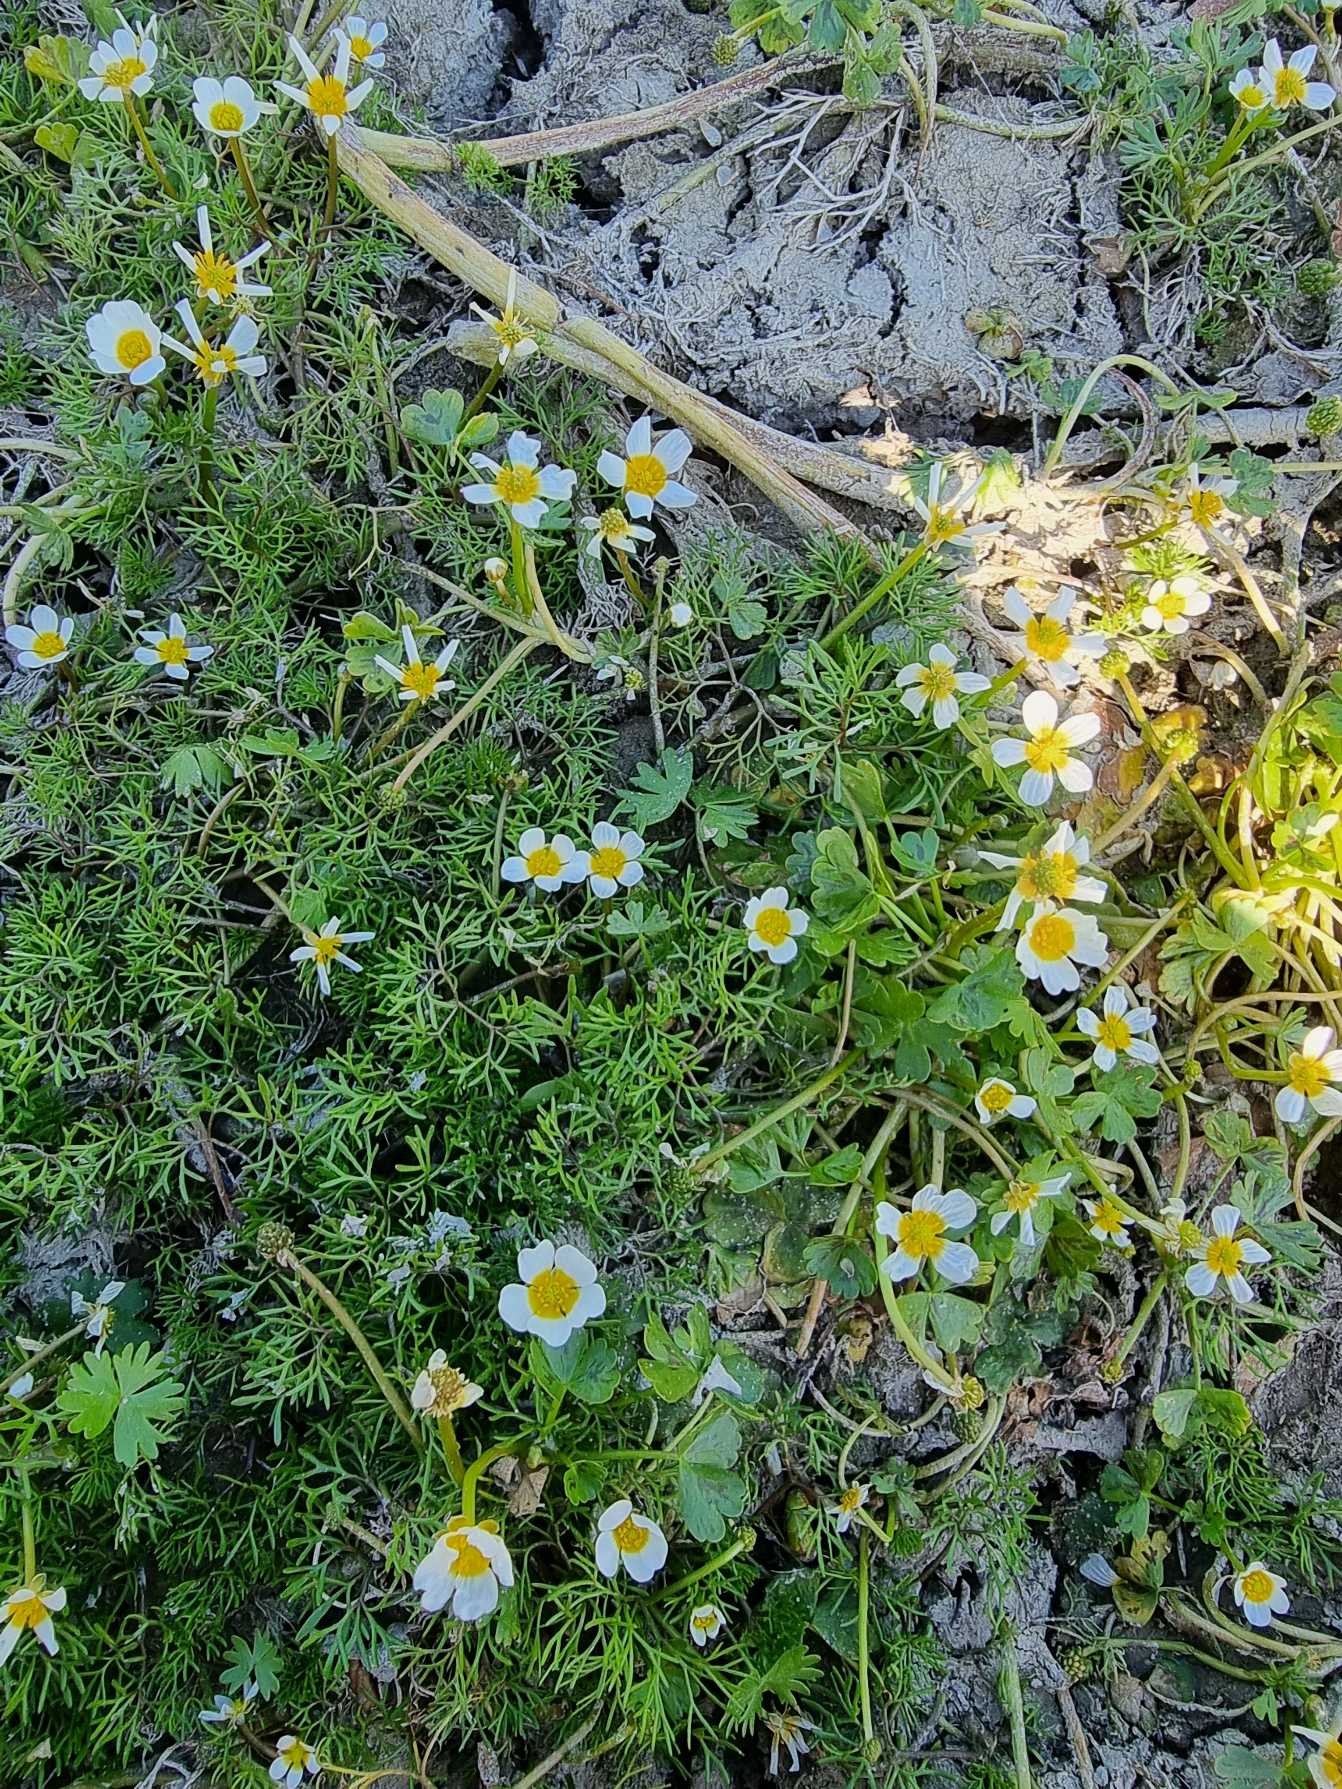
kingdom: Plantae
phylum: Tracheophyta
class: Magnoliopsida
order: Ranunculales
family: Ranunculaceae
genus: Ranunculus
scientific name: Ranunculus peltatus
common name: Storblomstret vandranunkel
